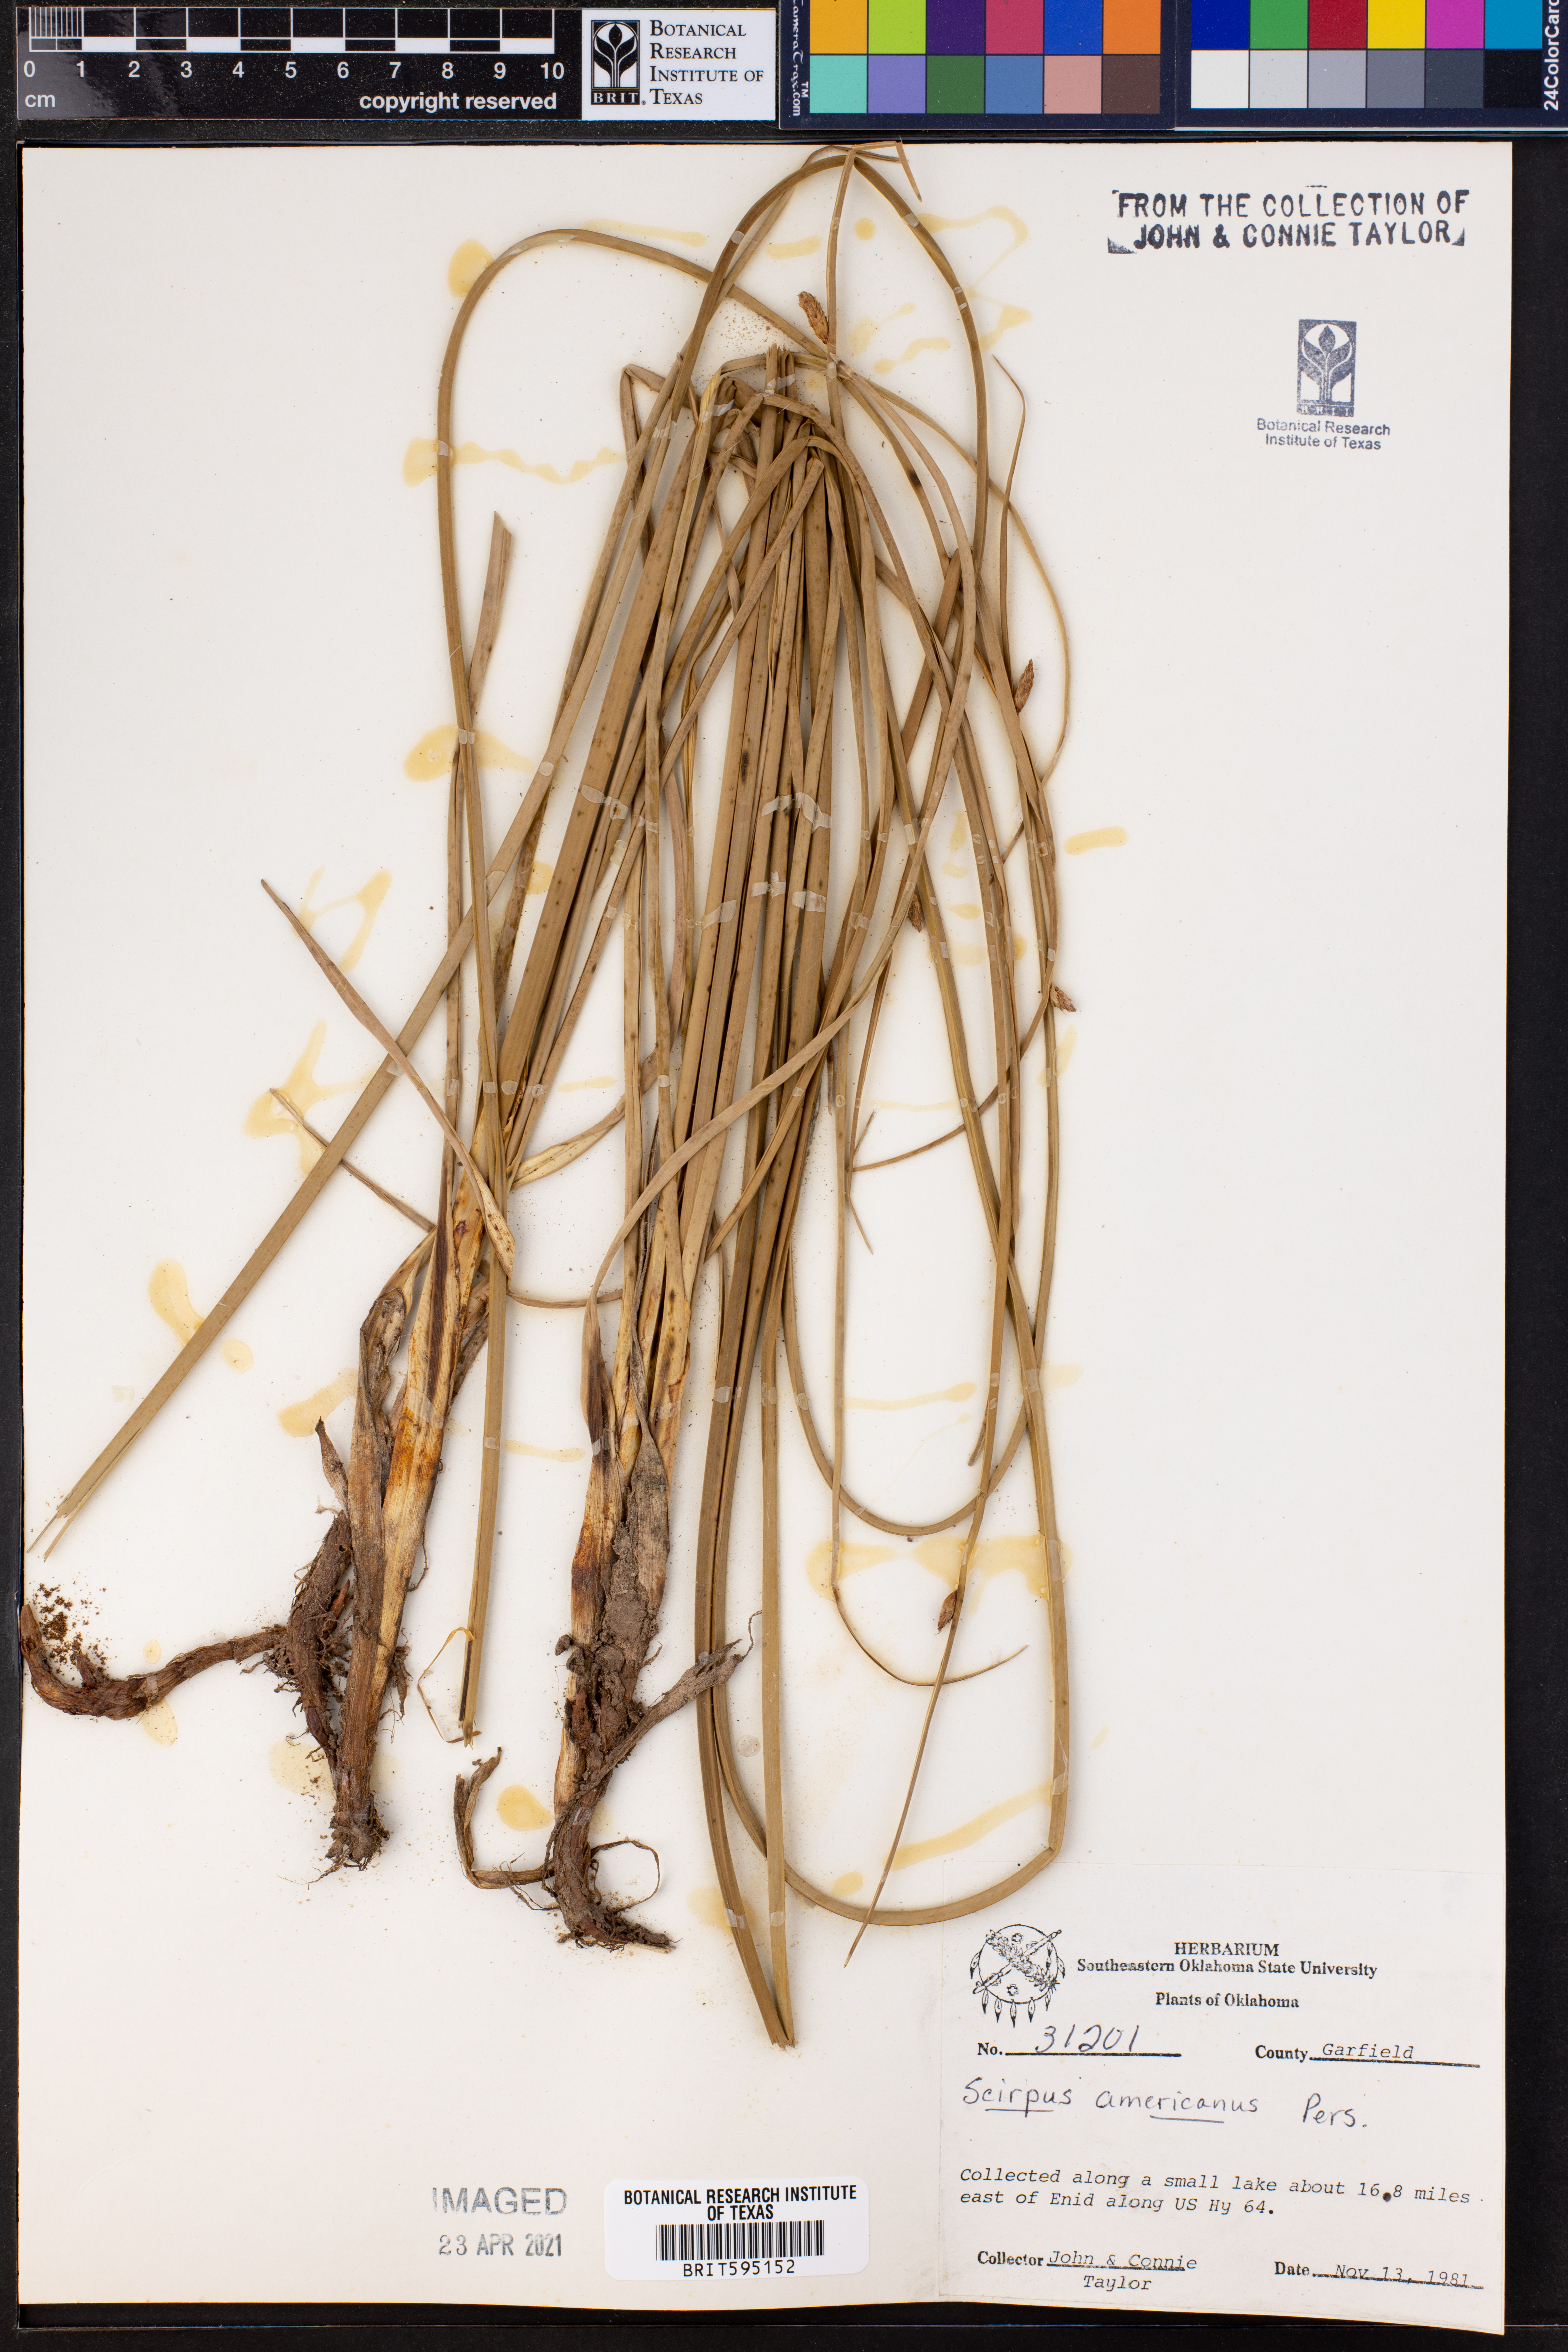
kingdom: Plantae
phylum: Tracheophyta
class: Liliopsida
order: Poales
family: Cyperaceae
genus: Schoenoplectus
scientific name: Schoenoplectus americanus
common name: American three-square bulrush
